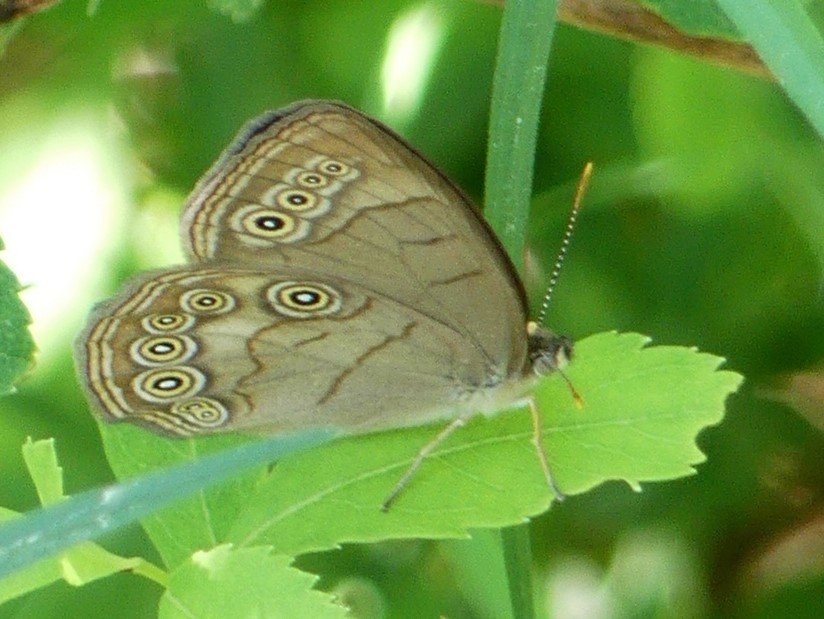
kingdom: Animalia
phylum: Arthropoda
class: Insecta
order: Lepidoptera
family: Nymphalidae
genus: Lethe
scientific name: Lethe eurydice
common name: Appalachian Eyed Brown
